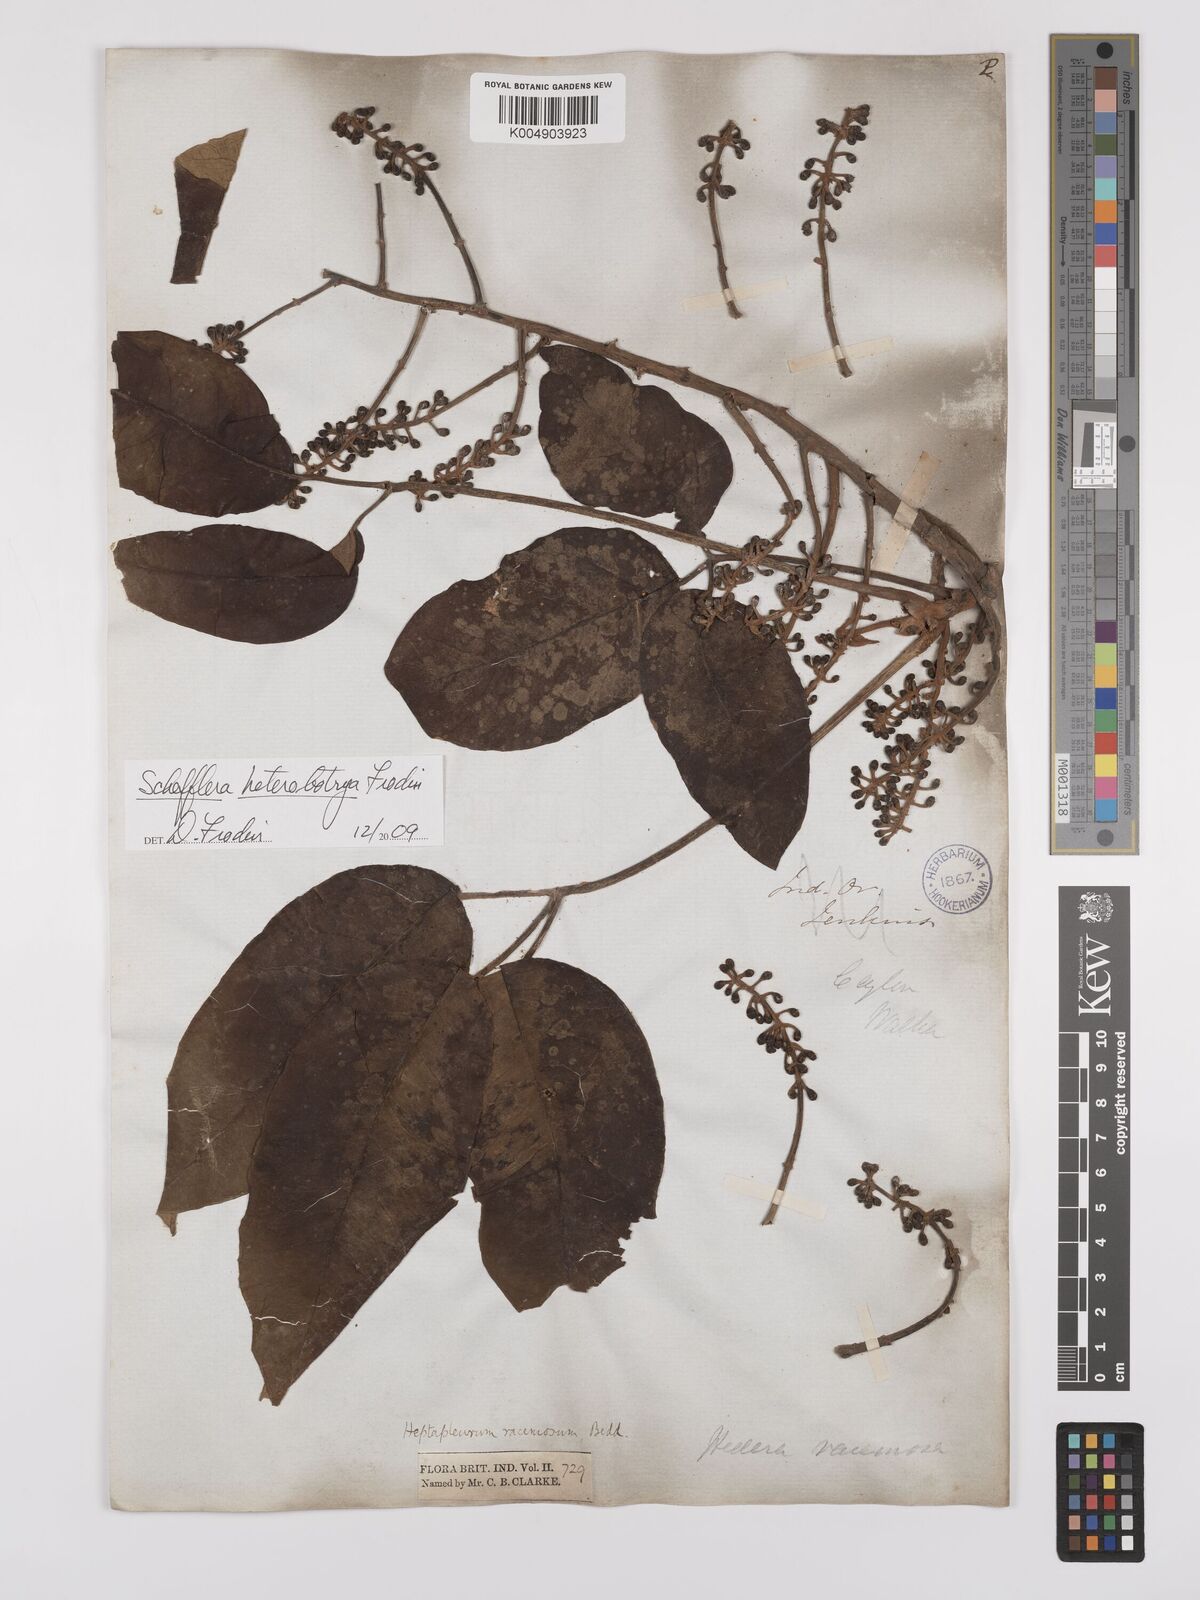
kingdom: Plantae
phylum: Tracheophyta
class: Magnoliopsida
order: Apiales
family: Araliaceae
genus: Heptapleurum
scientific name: Heptapleurum
